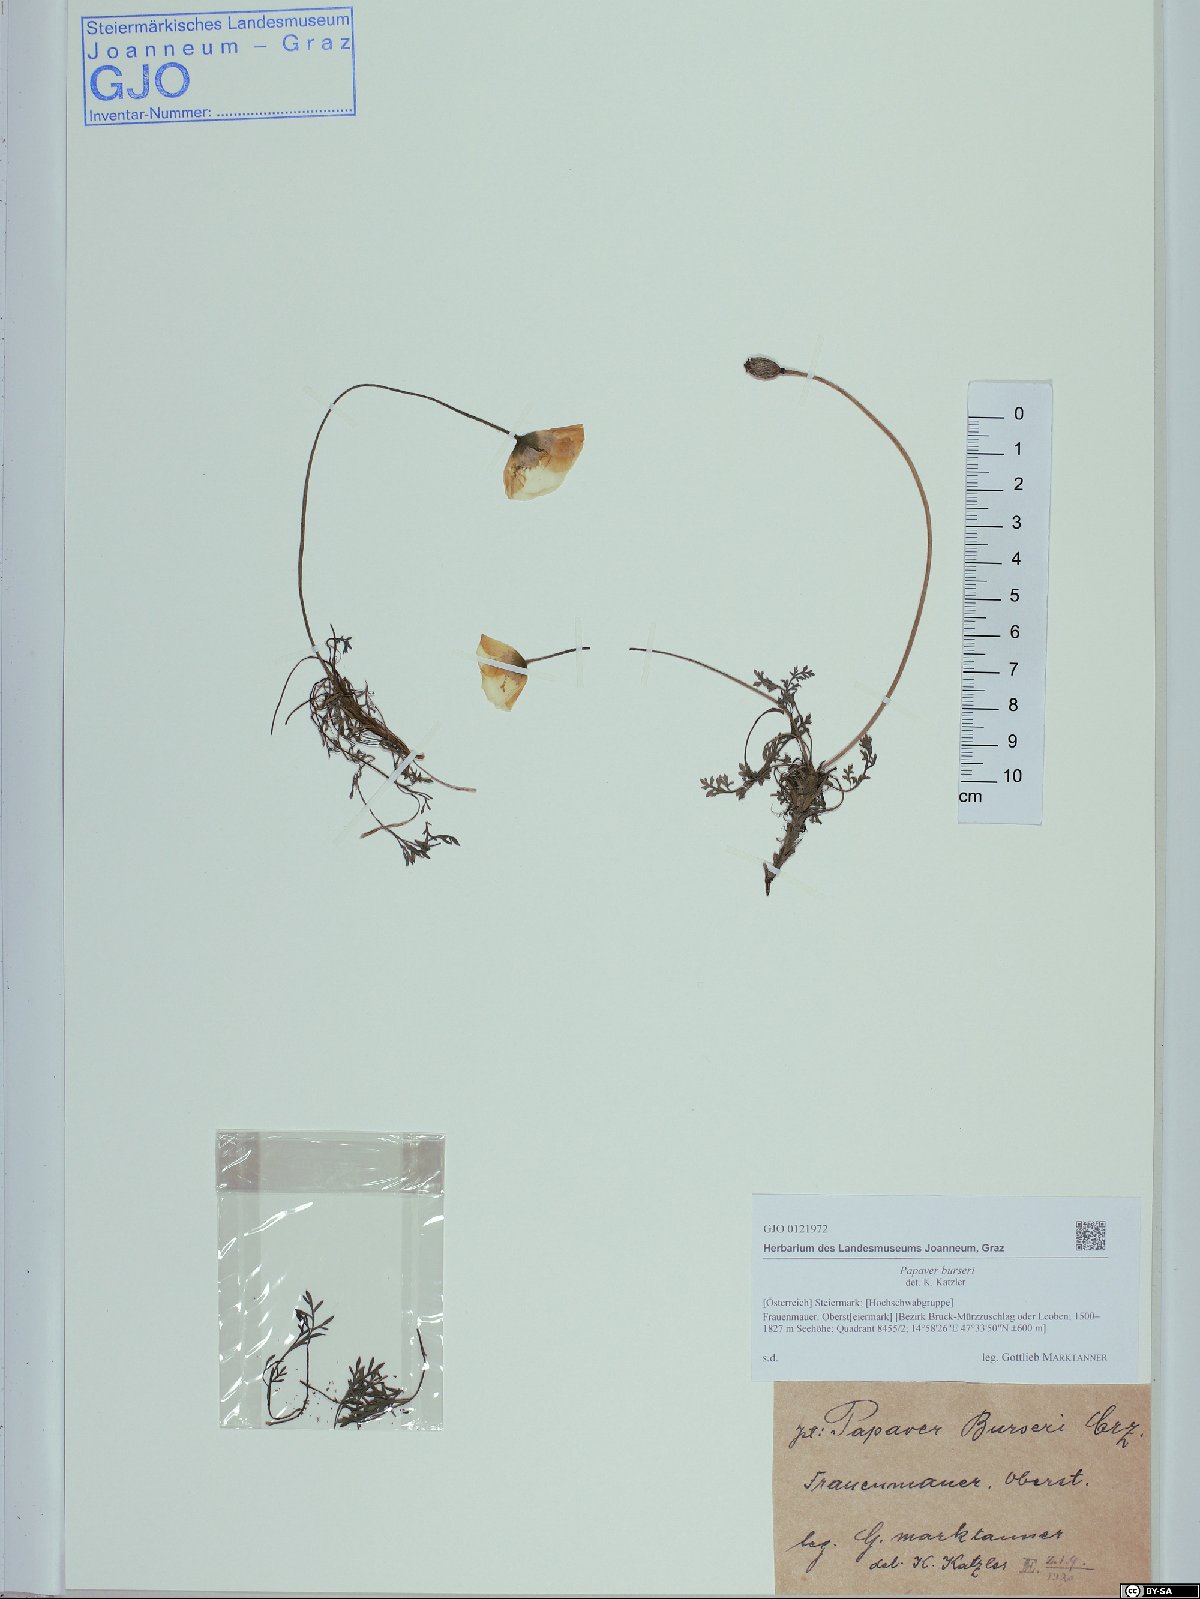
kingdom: Plantae
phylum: Tracheophyta
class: Magnoliopsida
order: Ranunculales
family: Papaveraceae
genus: Papaver
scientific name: Papaver alpinum
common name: Austrian poppy
